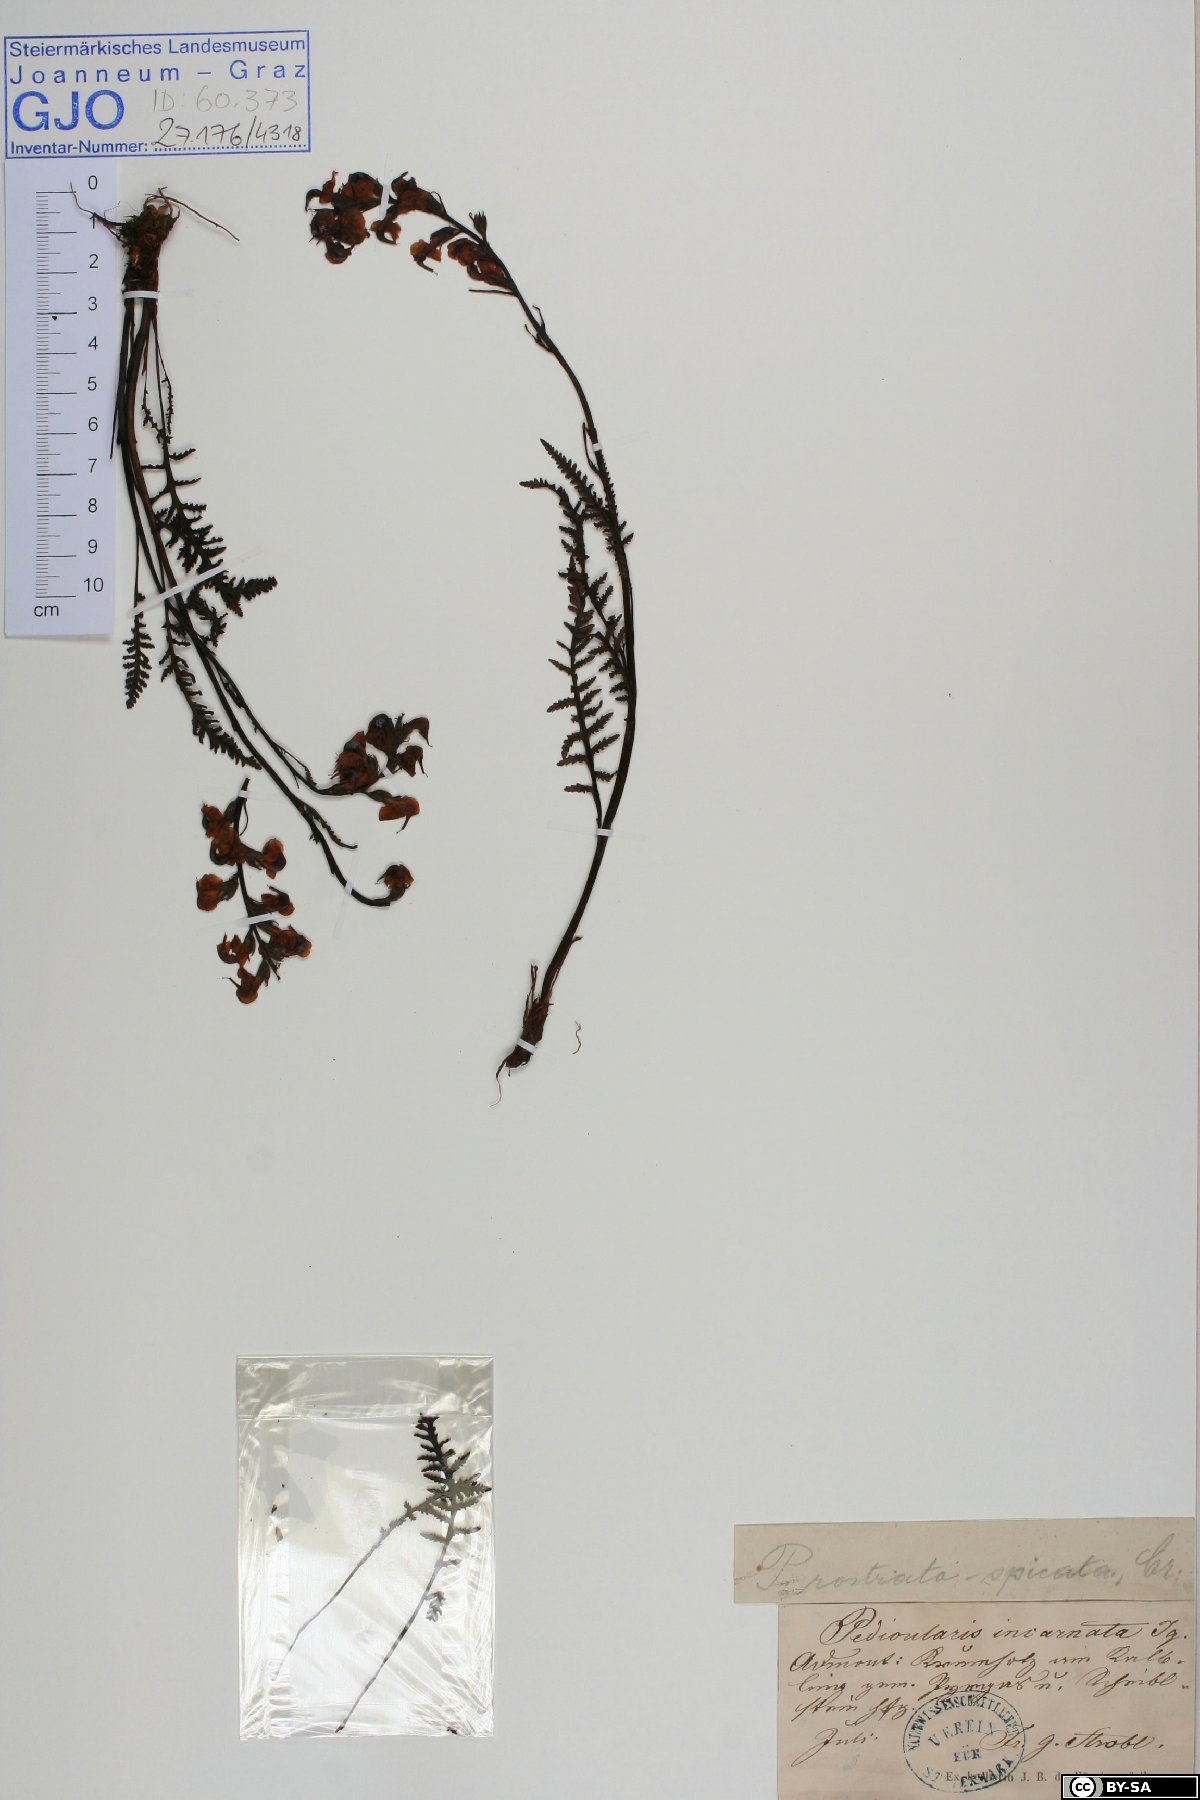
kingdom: Plantae
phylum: Tracheophyta
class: Magnoliopsida
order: Lamiales
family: Orobanchaceae
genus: Pedicularis
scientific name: Pedicularis rostratospicata
